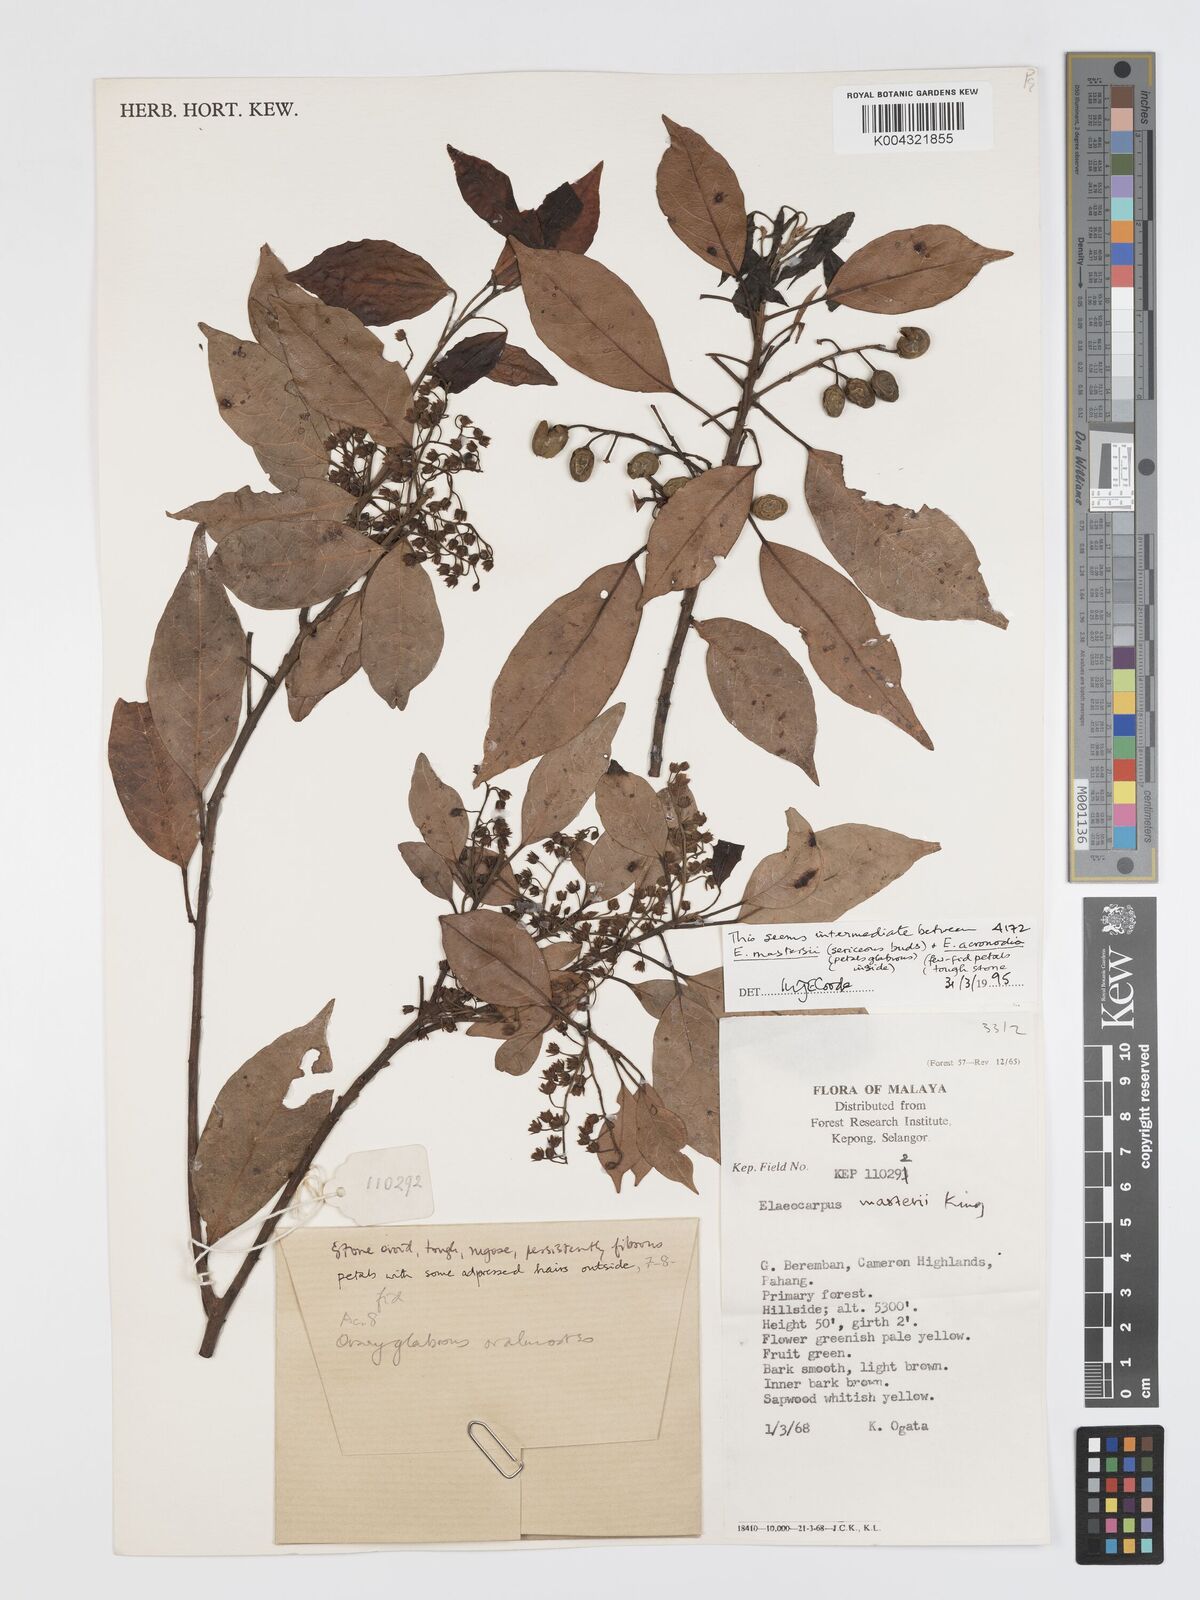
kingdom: Plantae
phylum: Tracheophyta
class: Magnoliopsida
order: Oxalidales
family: Elaeocarpaceae
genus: Elaeocarpus
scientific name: Elaeocarpus mastersii
